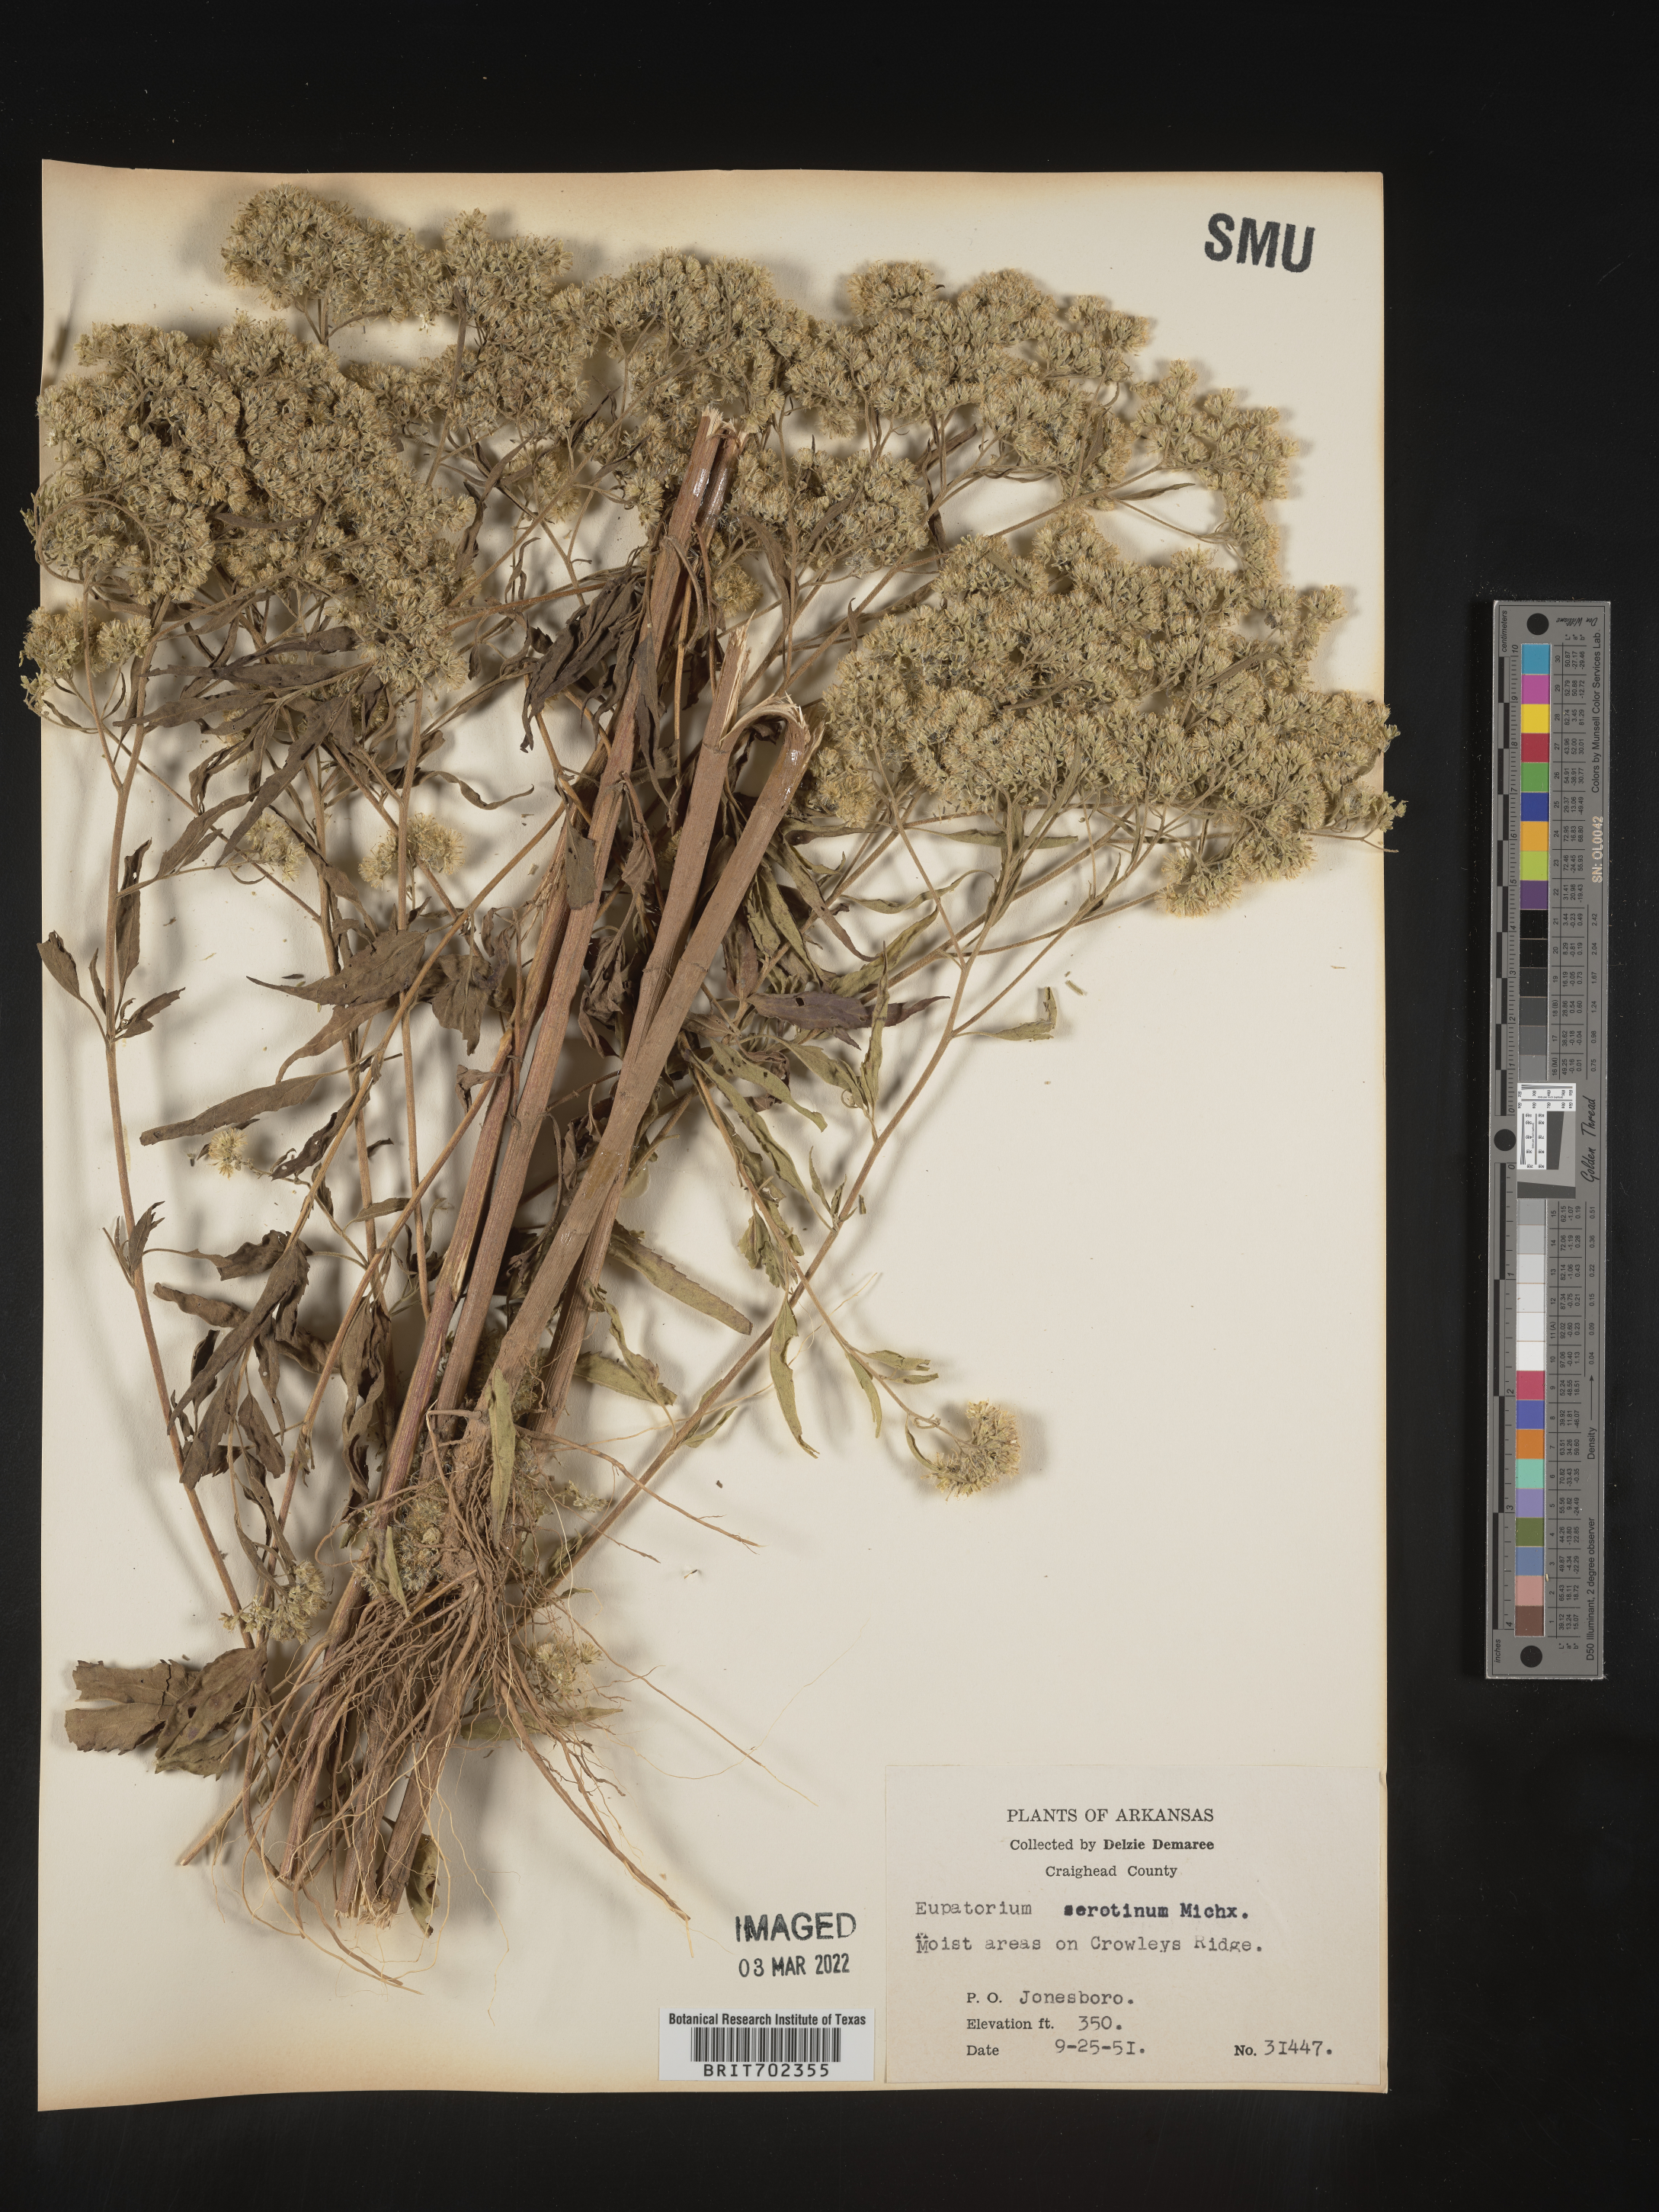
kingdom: Plantae
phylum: Tracheophyta
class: Magnoliopsida
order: Asterales
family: Asteraceae
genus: Eupatorium
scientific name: Eupatorium serotinum
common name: Late boneset
